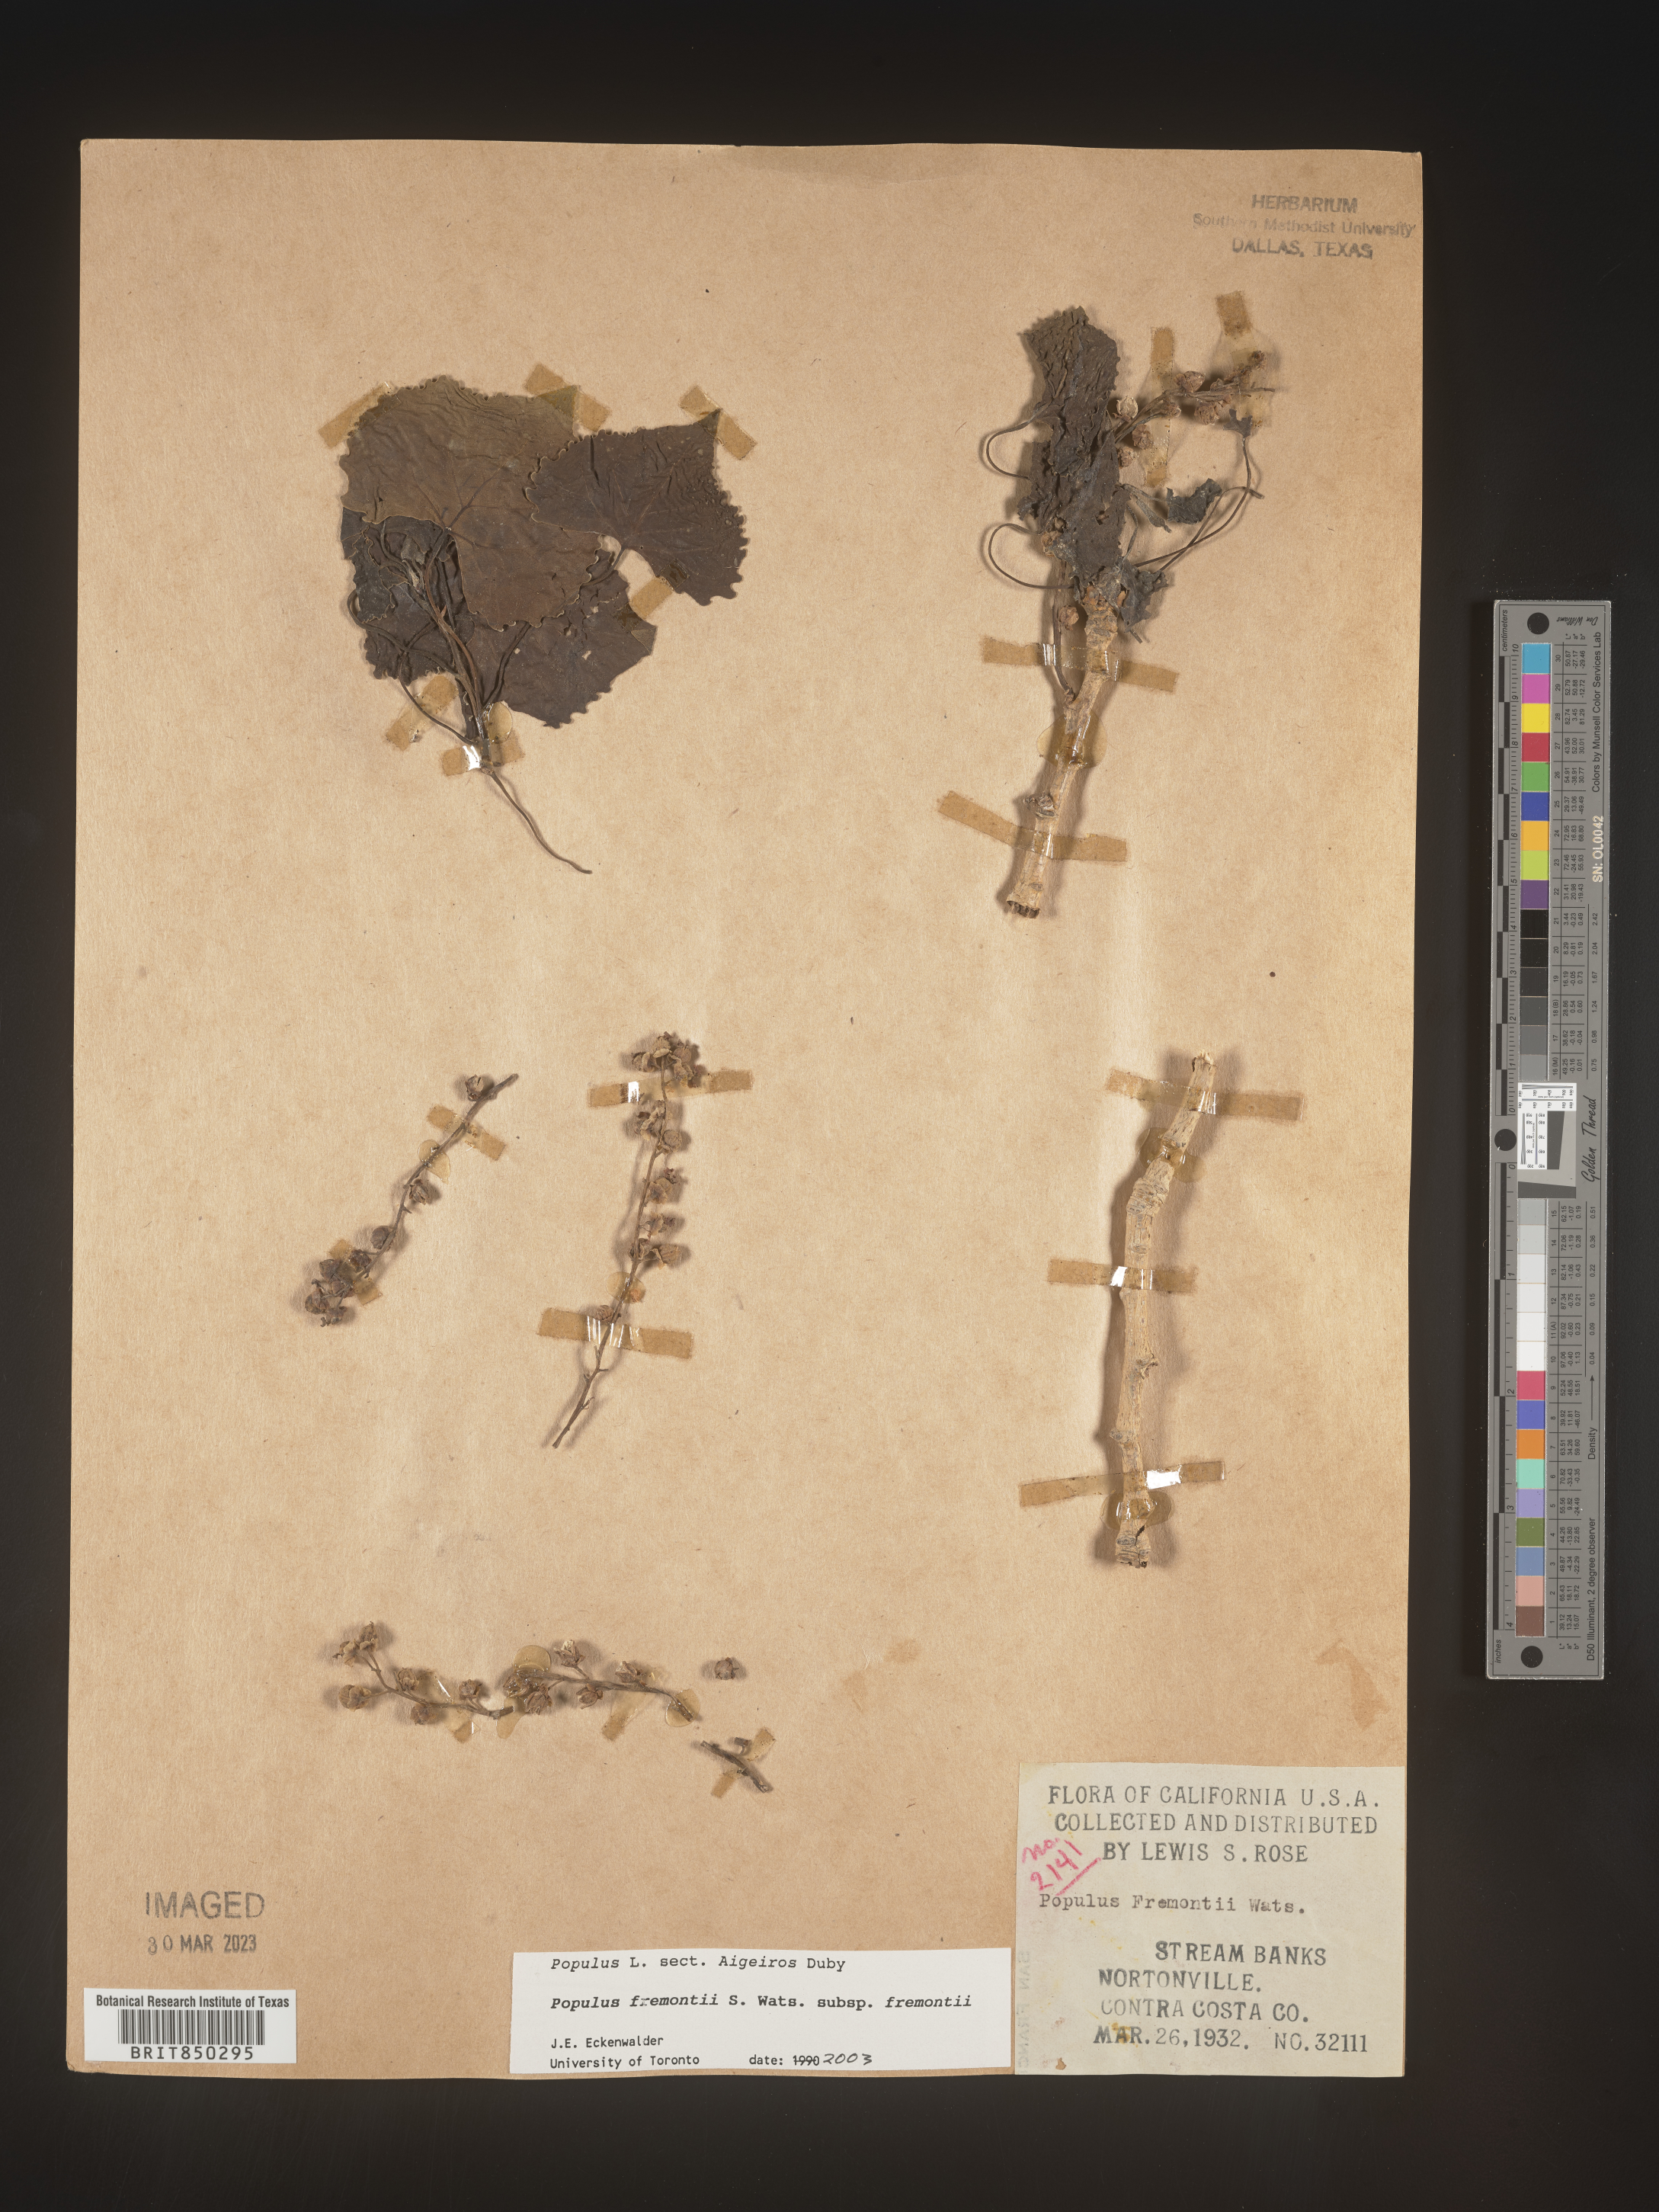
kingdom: Plantae
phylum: Tracheophyta
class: Magnoliopsida
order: Malpighiales
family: Salicaceae
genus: Populus
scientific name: Populus fremontii
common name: Fremont's cottonwood
